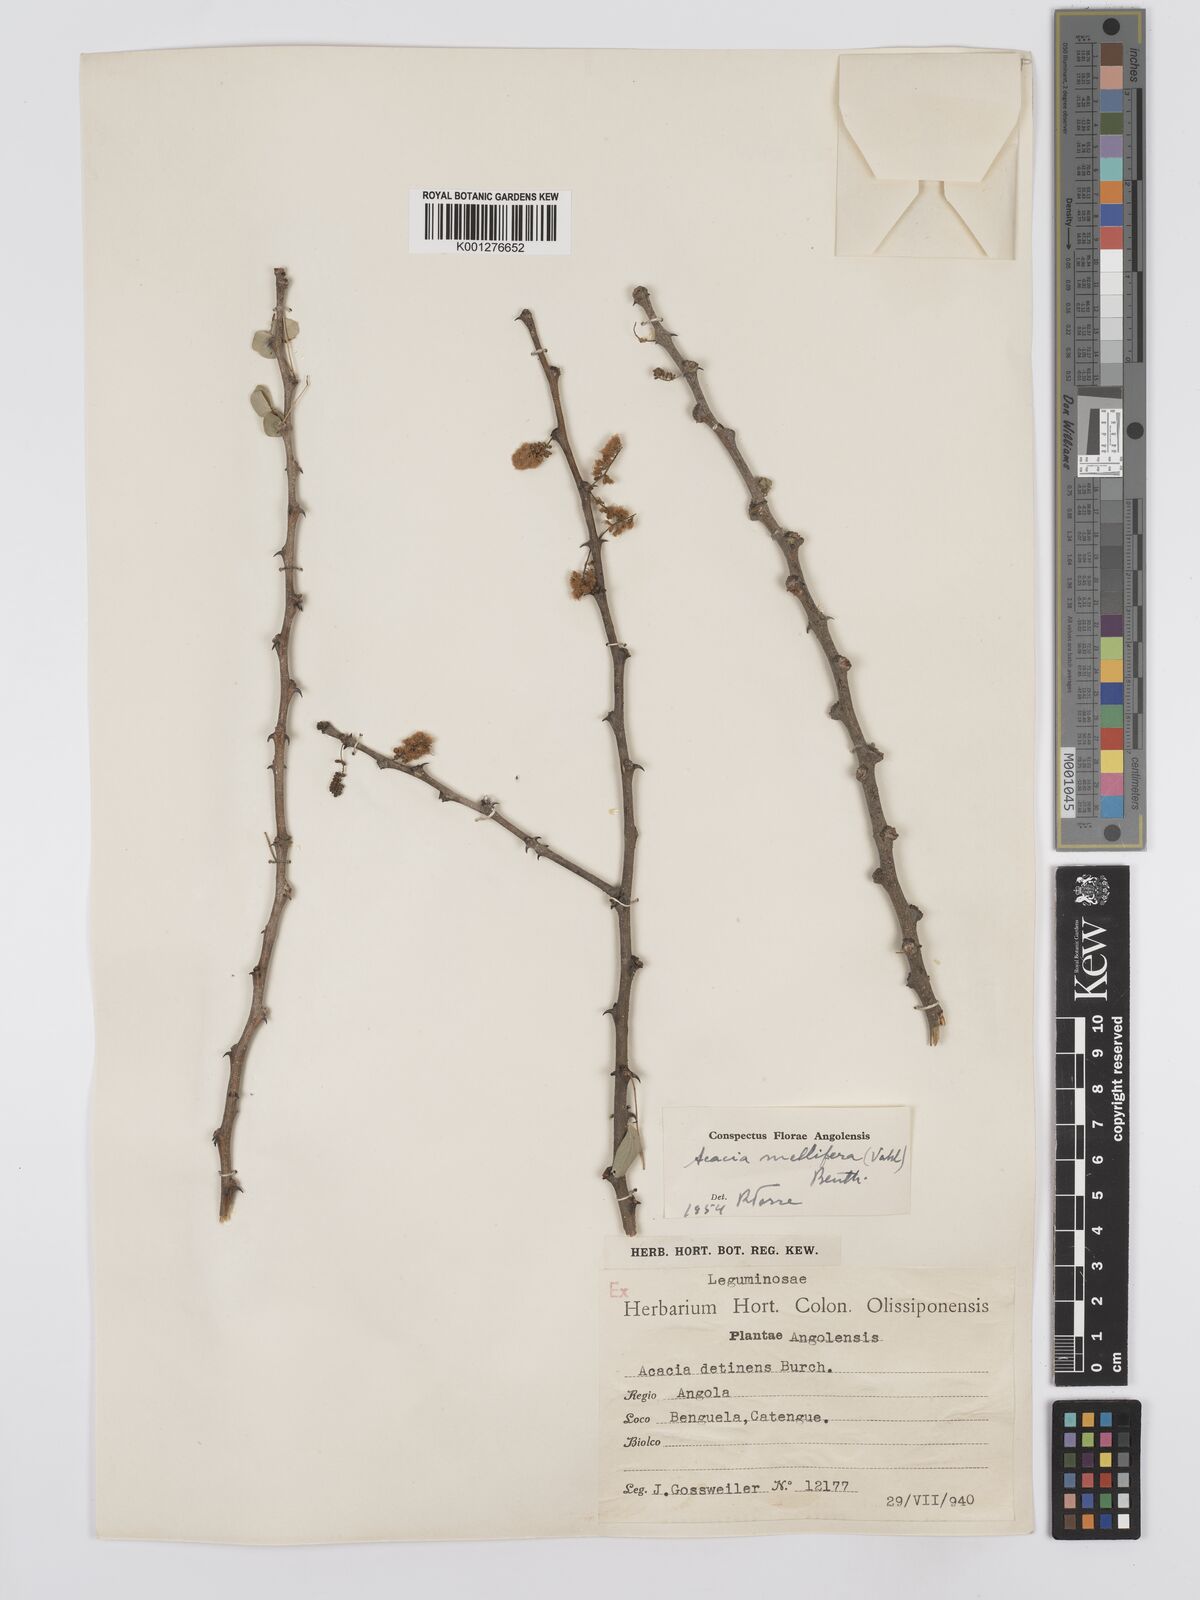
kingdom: Plantae
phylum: Tracheophyta
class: Magnoliopsida
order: Fabales
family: Fabaceae
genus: Senegalia
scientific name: Senegalia mellifera
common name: Hookthorn
